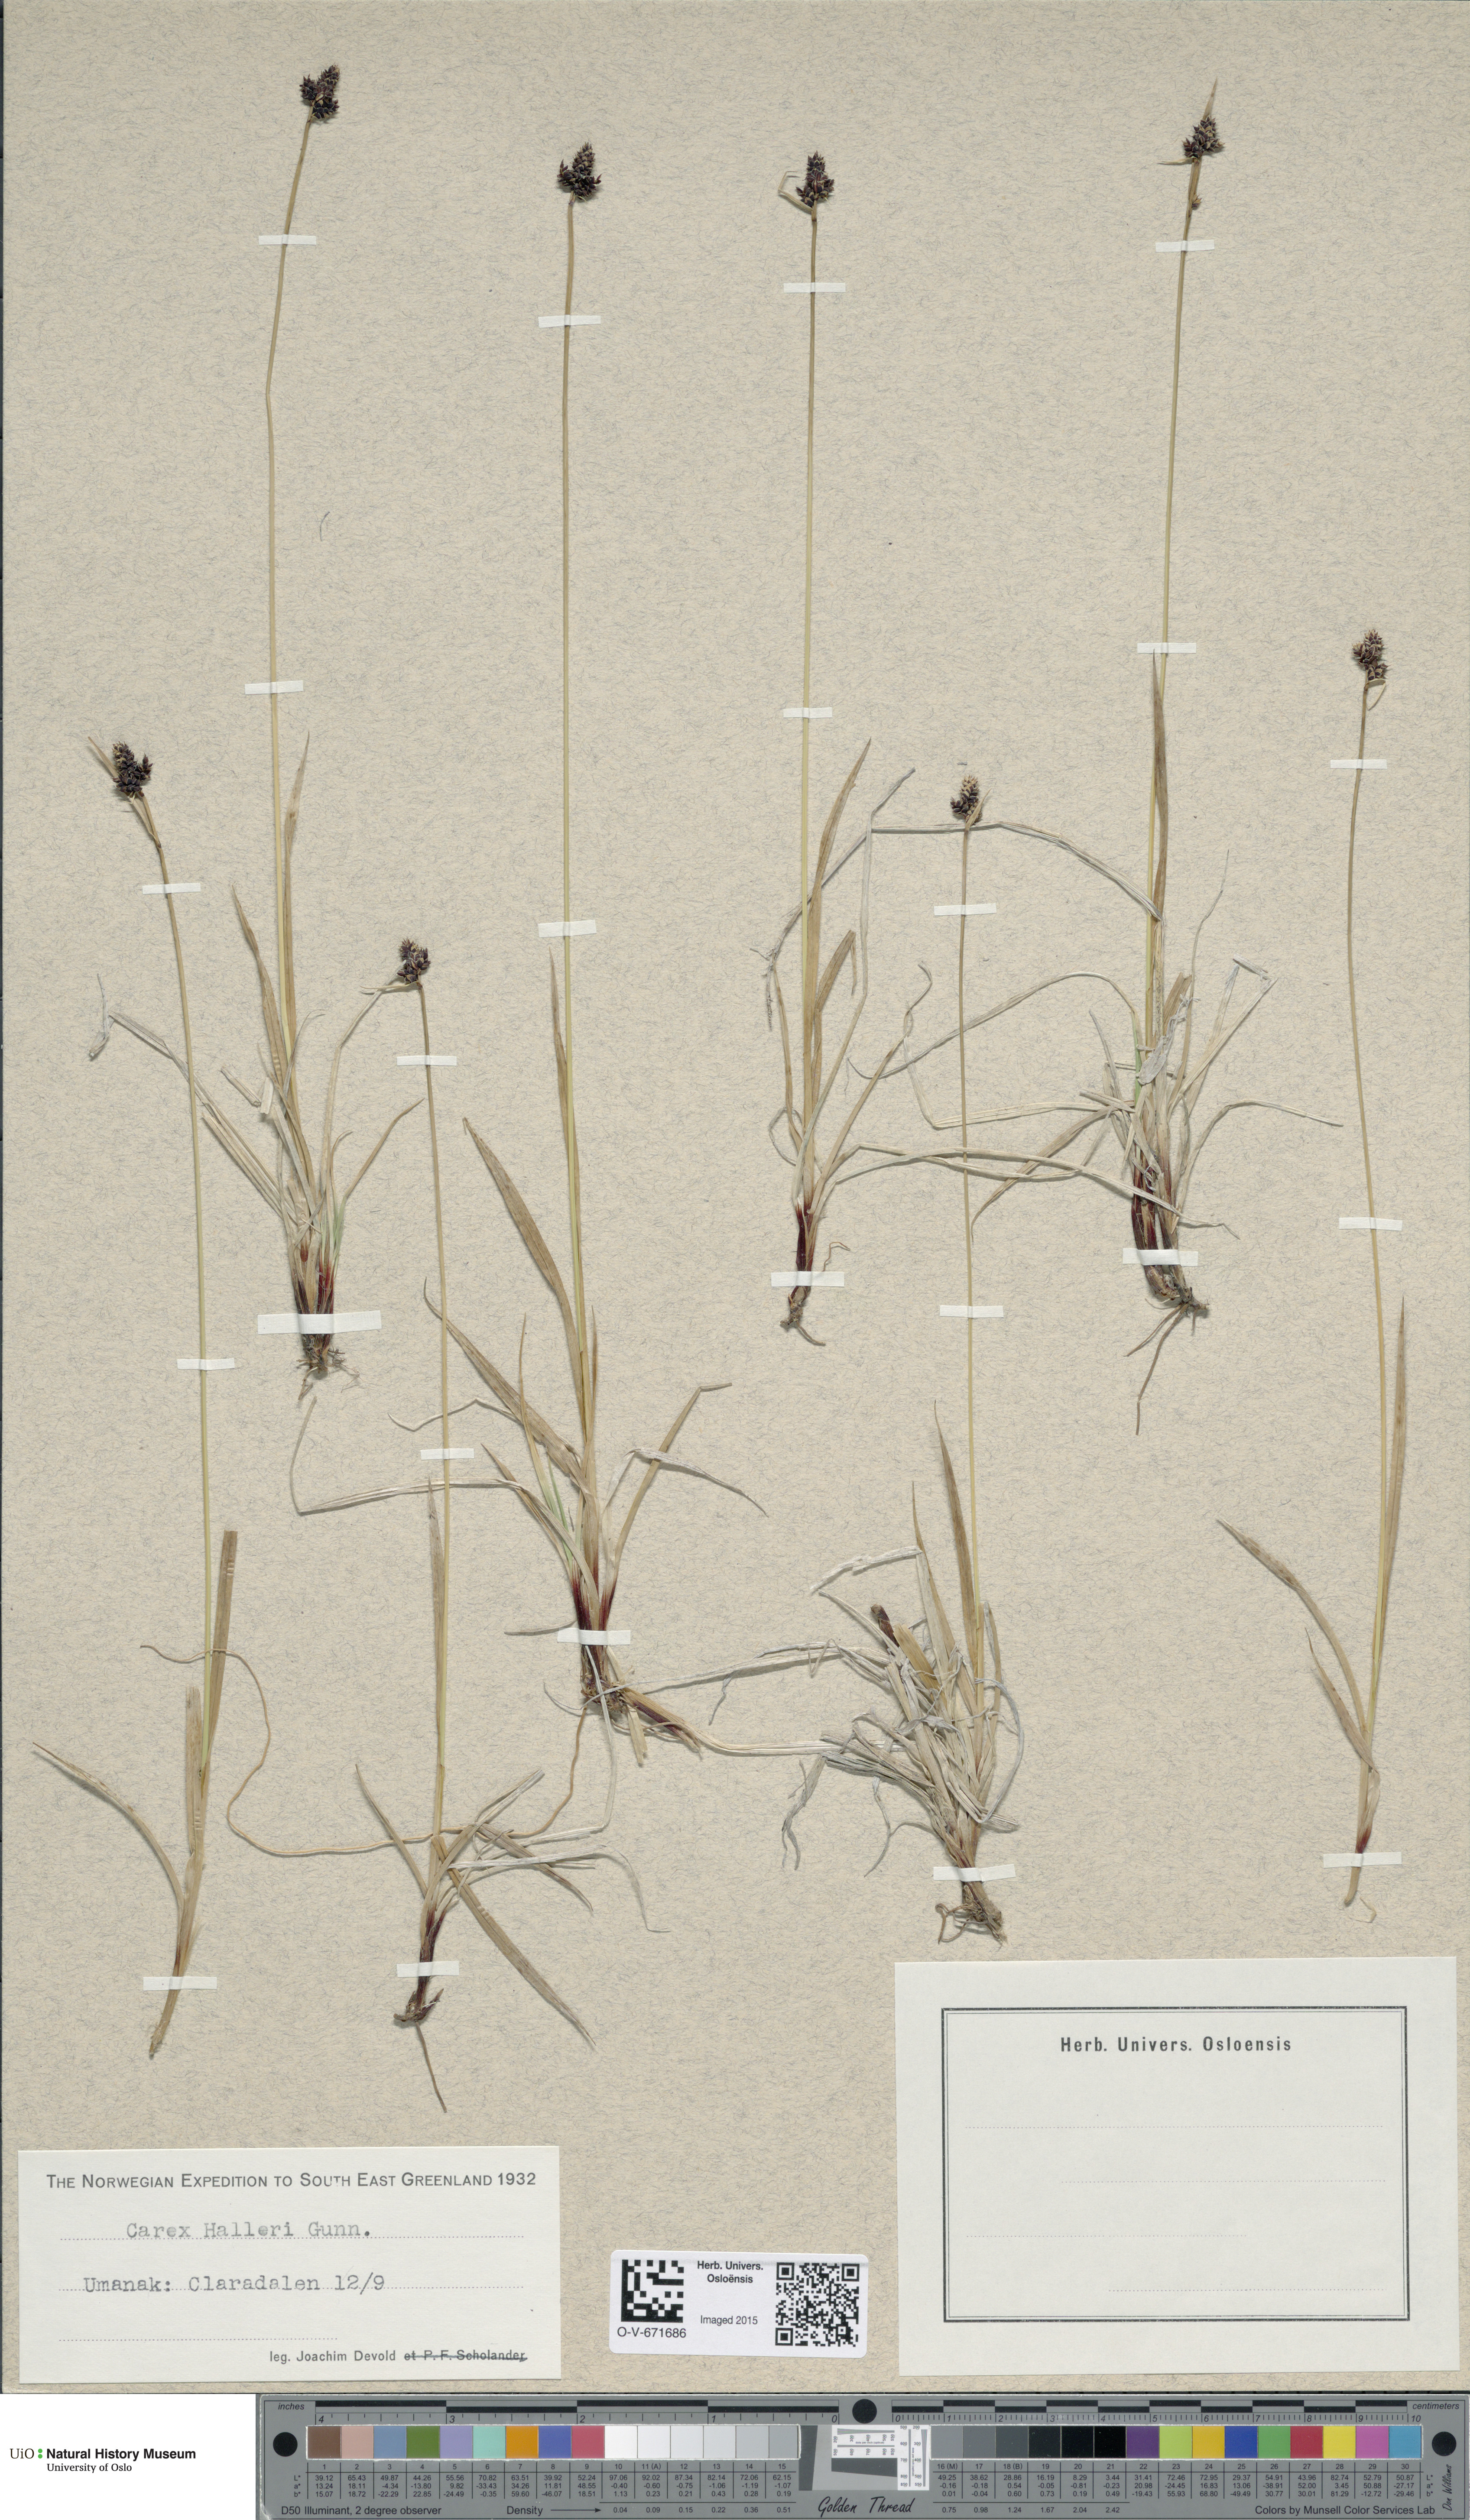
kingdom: Plantae
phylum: Tracheophyta
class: Liliopsida
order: Poales
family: Cyperaceae
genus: Carex
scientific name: Carex norvegica
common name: Close-headed alpine-sedge
